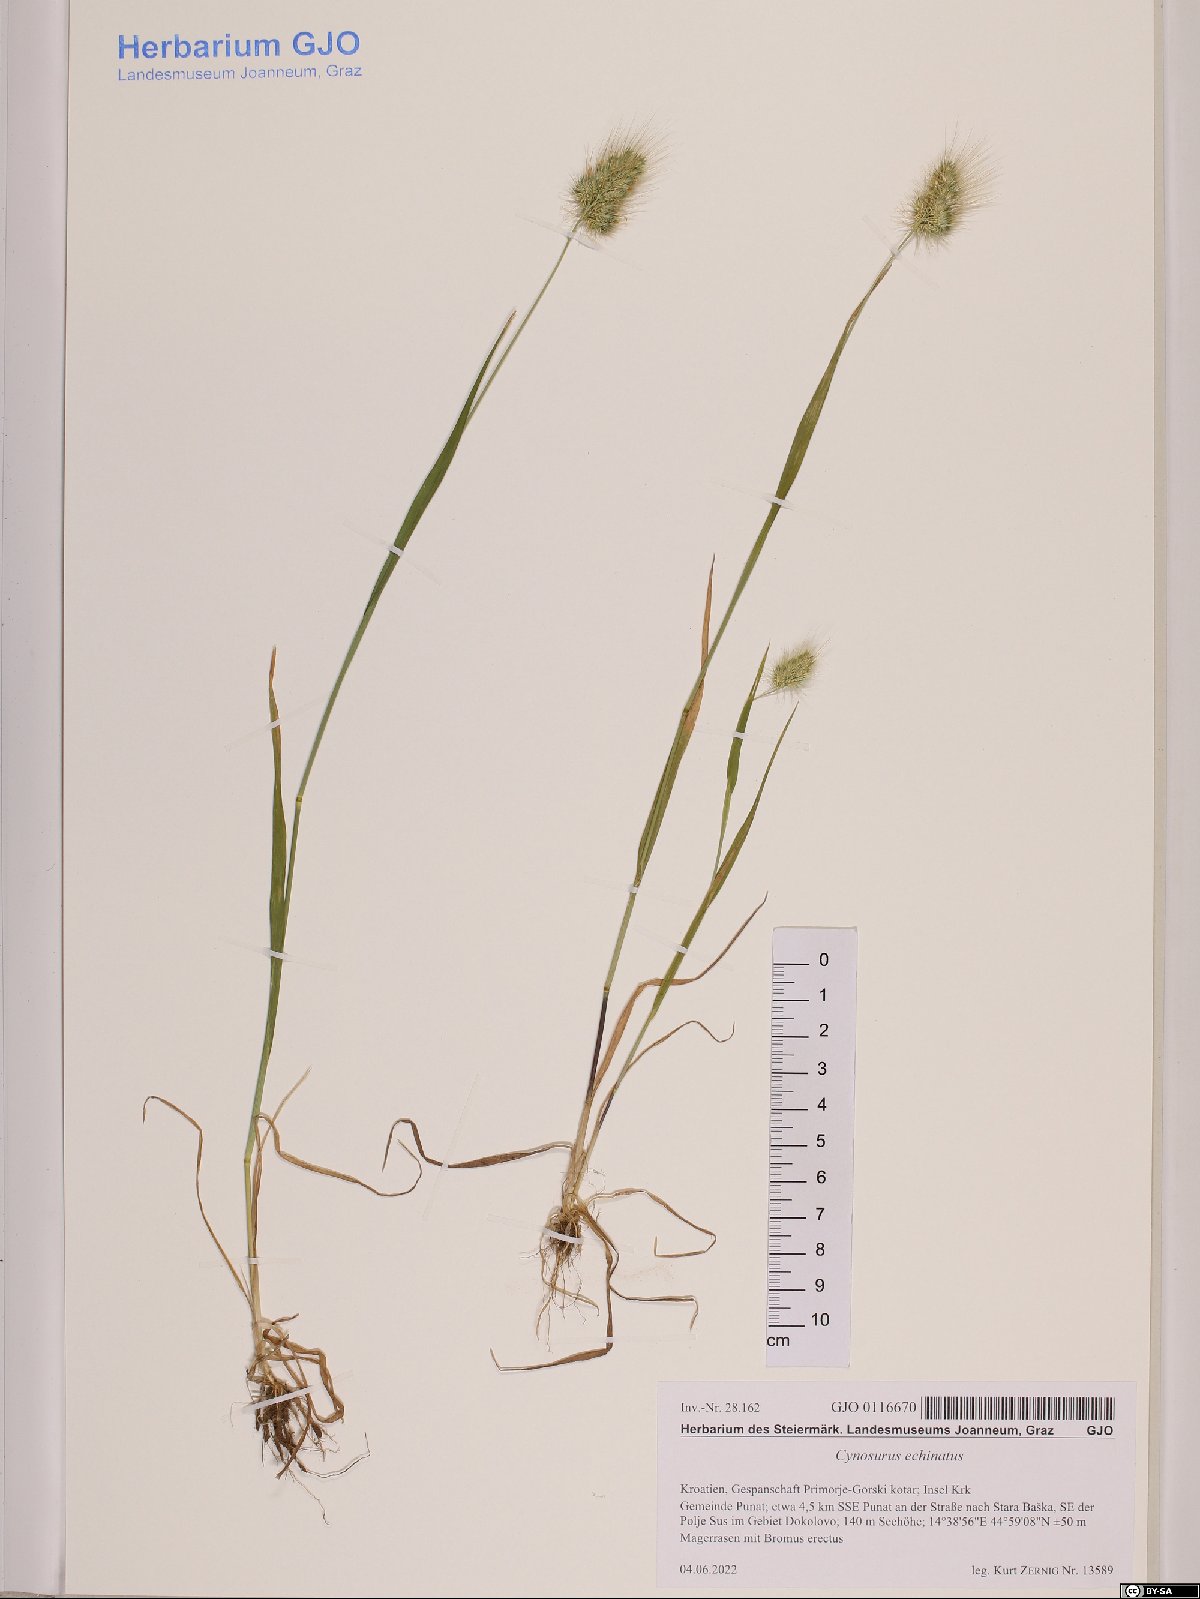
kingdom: Plantae
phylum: Tracheophyta
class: Liliopsida
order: Poales
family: Poaceae
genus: Cynosurus
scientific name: Cynosurus echinatus
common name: Rough dog's-tail
